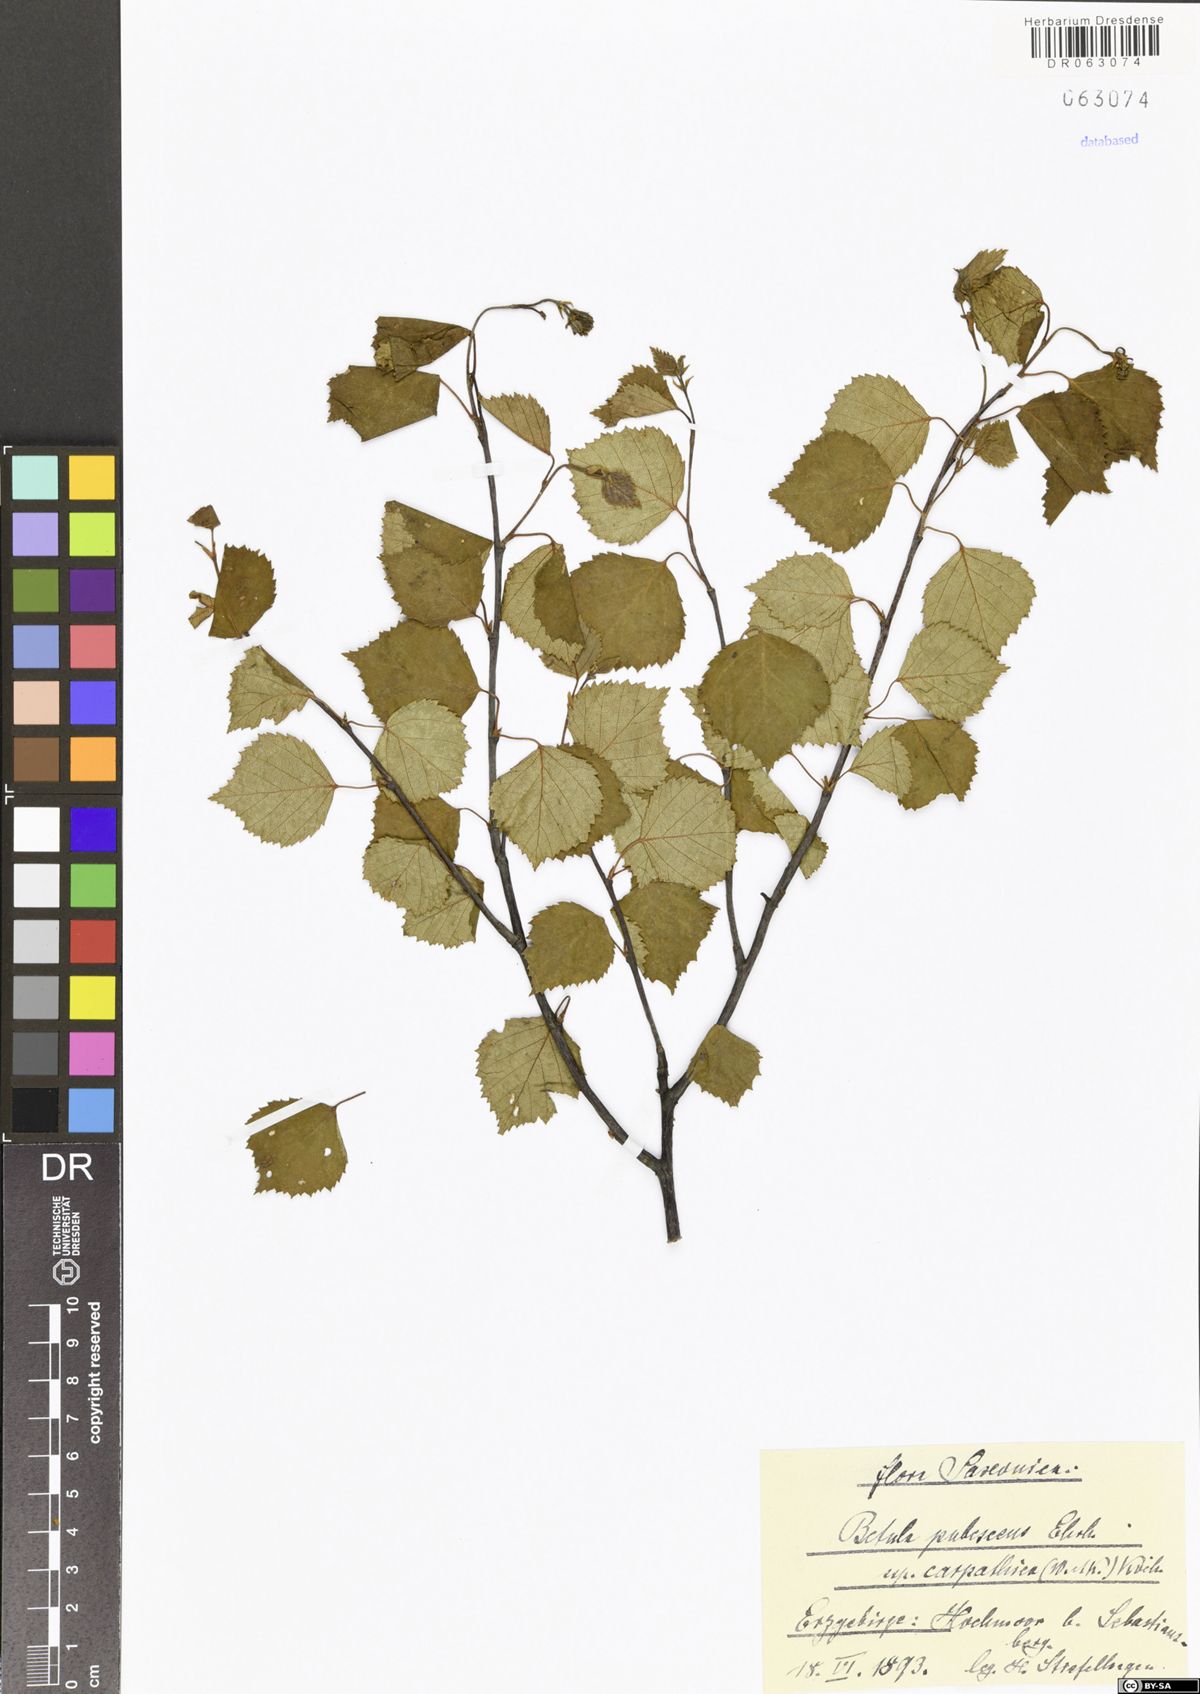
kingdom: Plantae
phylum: Tracheophyta
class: Magnoliopsida
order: Fagales
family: Betulaceae
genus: Betula
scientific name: Betula pubescens
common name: Downy birch
